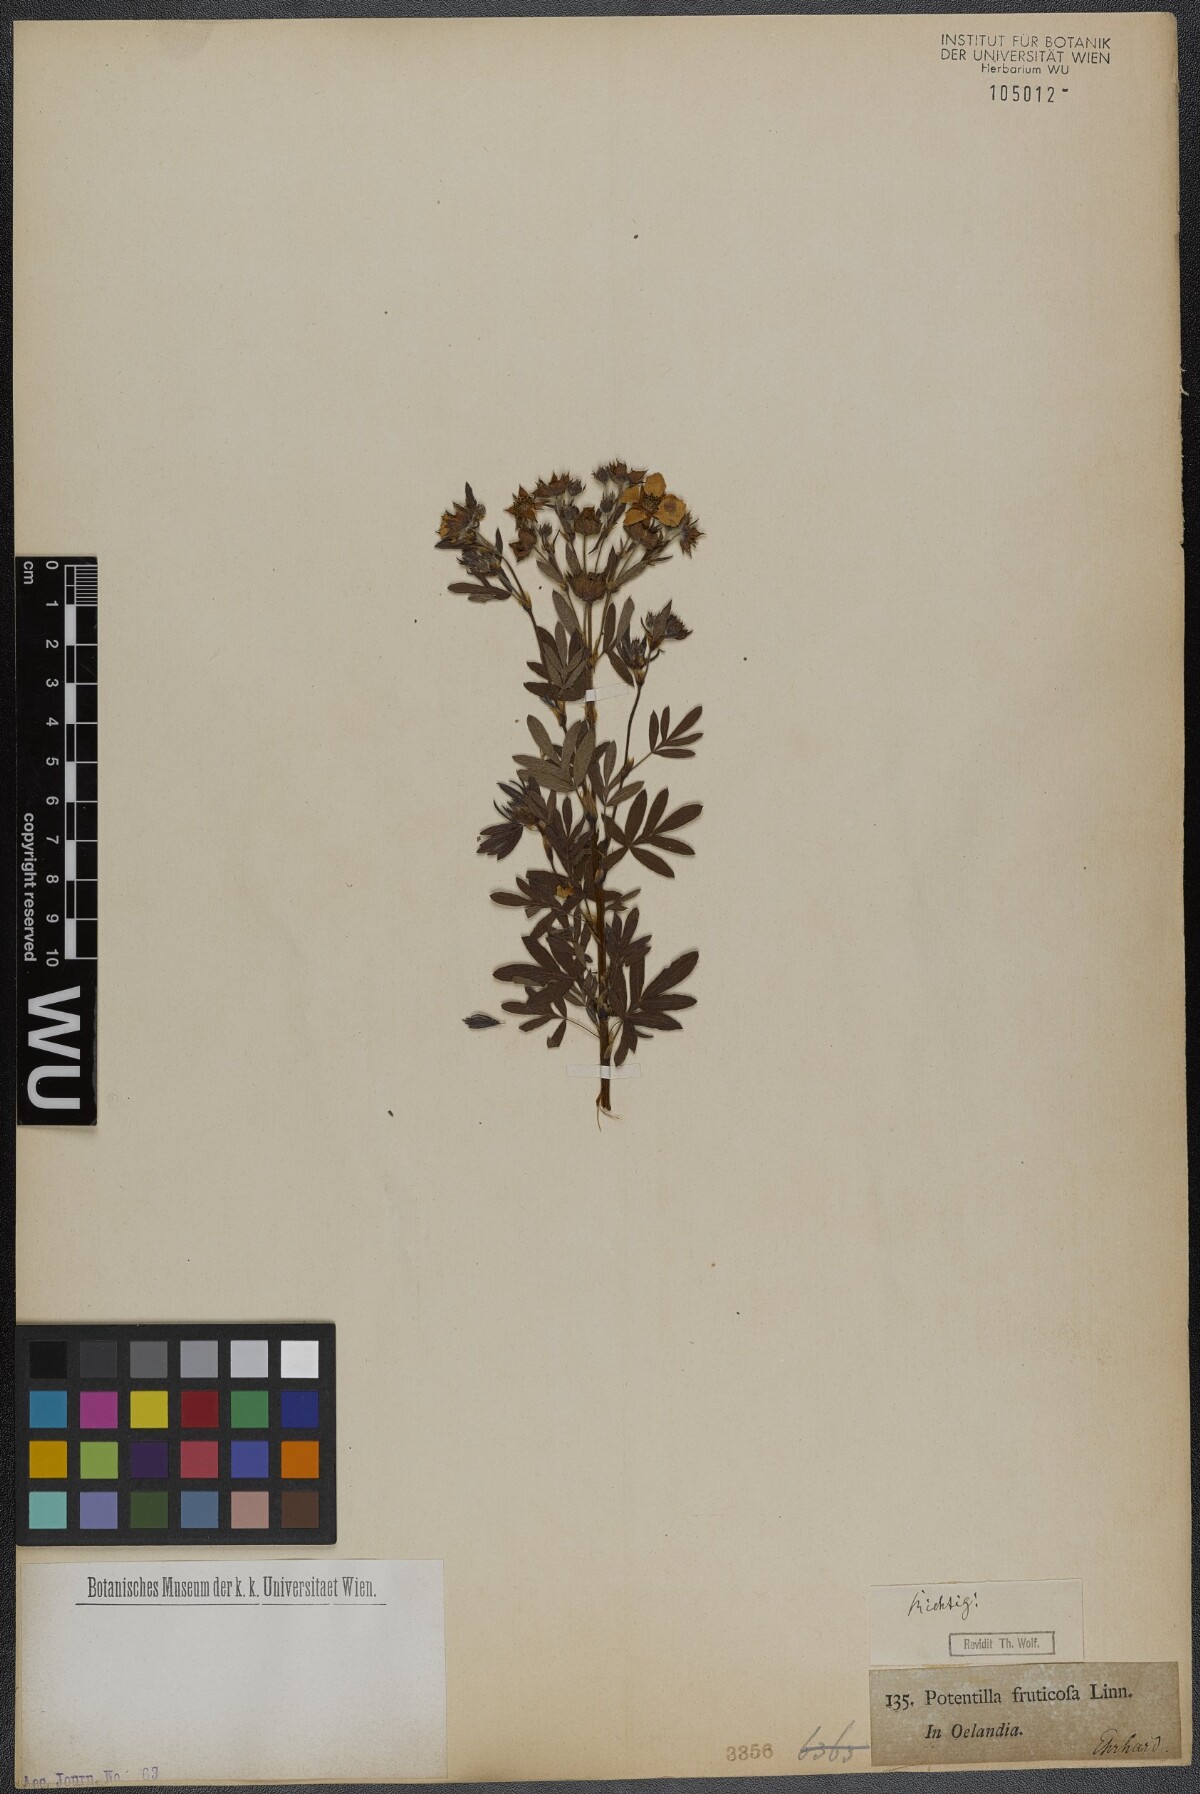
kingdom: Plantae
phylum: Tracheophyta
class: Magnoliopsida
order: Rosales
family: Rosaceae
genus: Dasiphora
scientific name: Dasiphora fruticosa
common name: Shrubby cinquefoil
